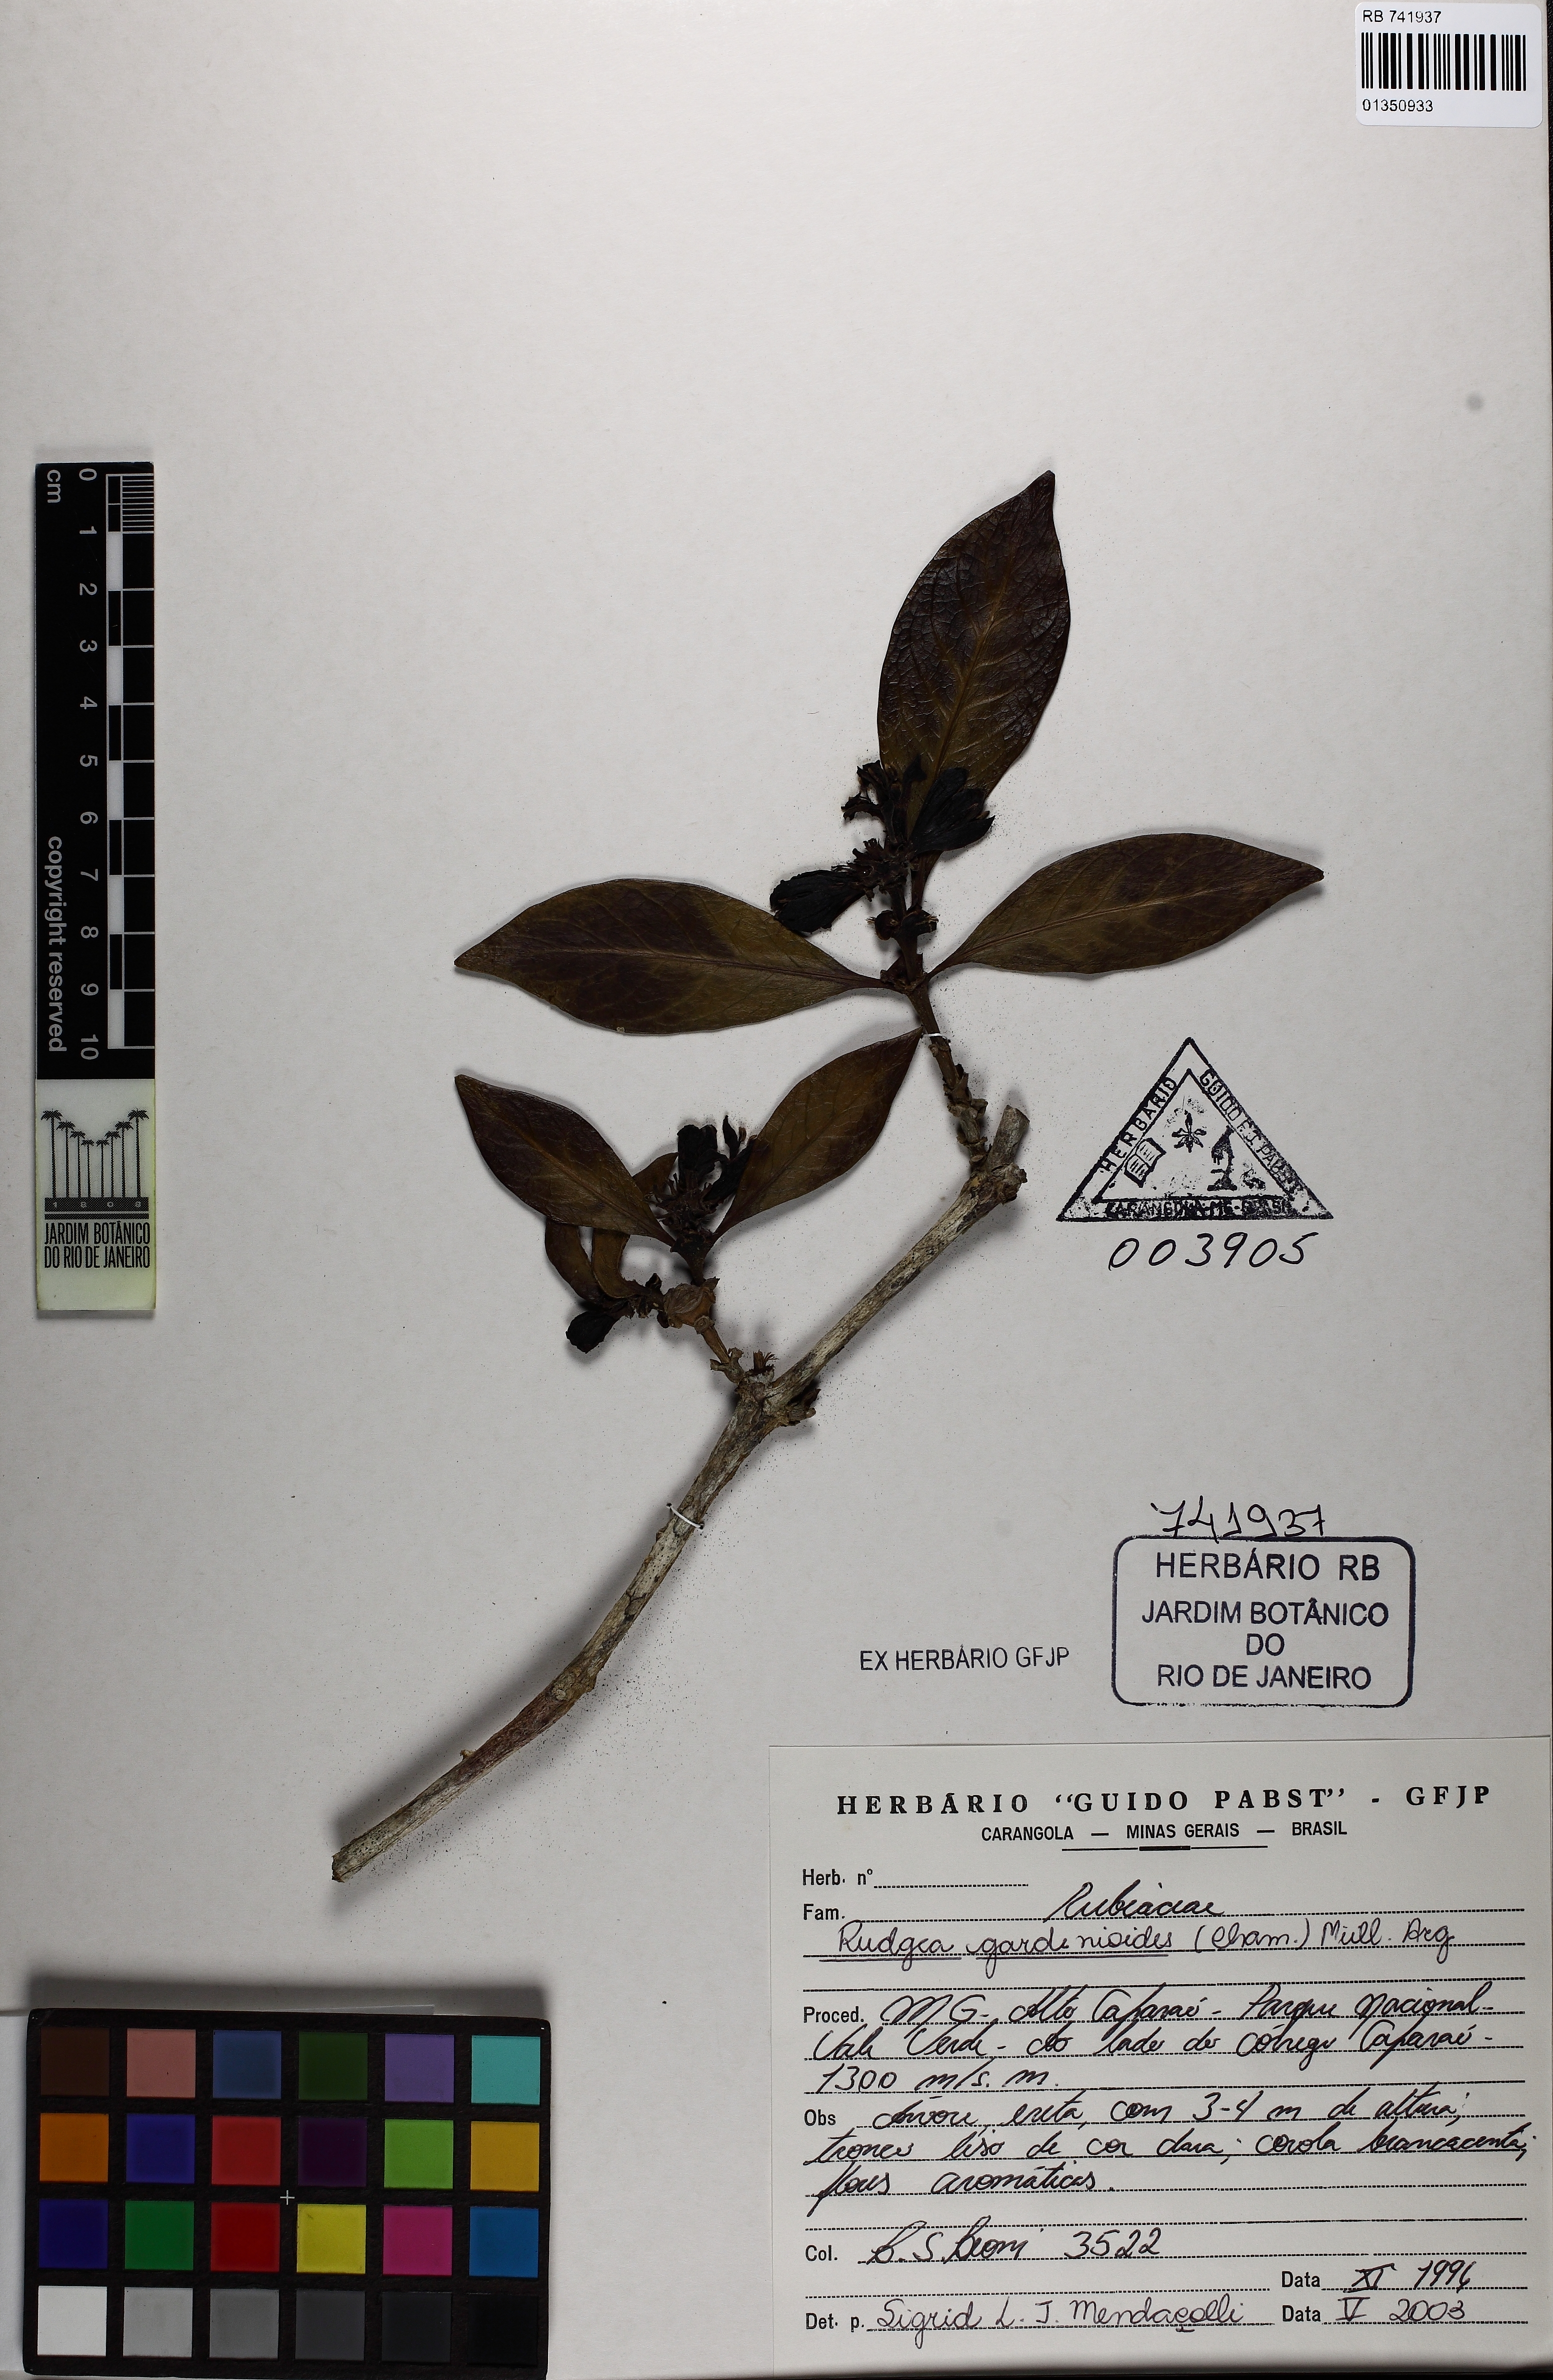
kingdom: Plantae
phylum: Tracheophyta
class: Magnoliopsida
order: Gentianales
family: Rubiaceae
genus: Rudgea
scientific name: Rudgea gardenioides
